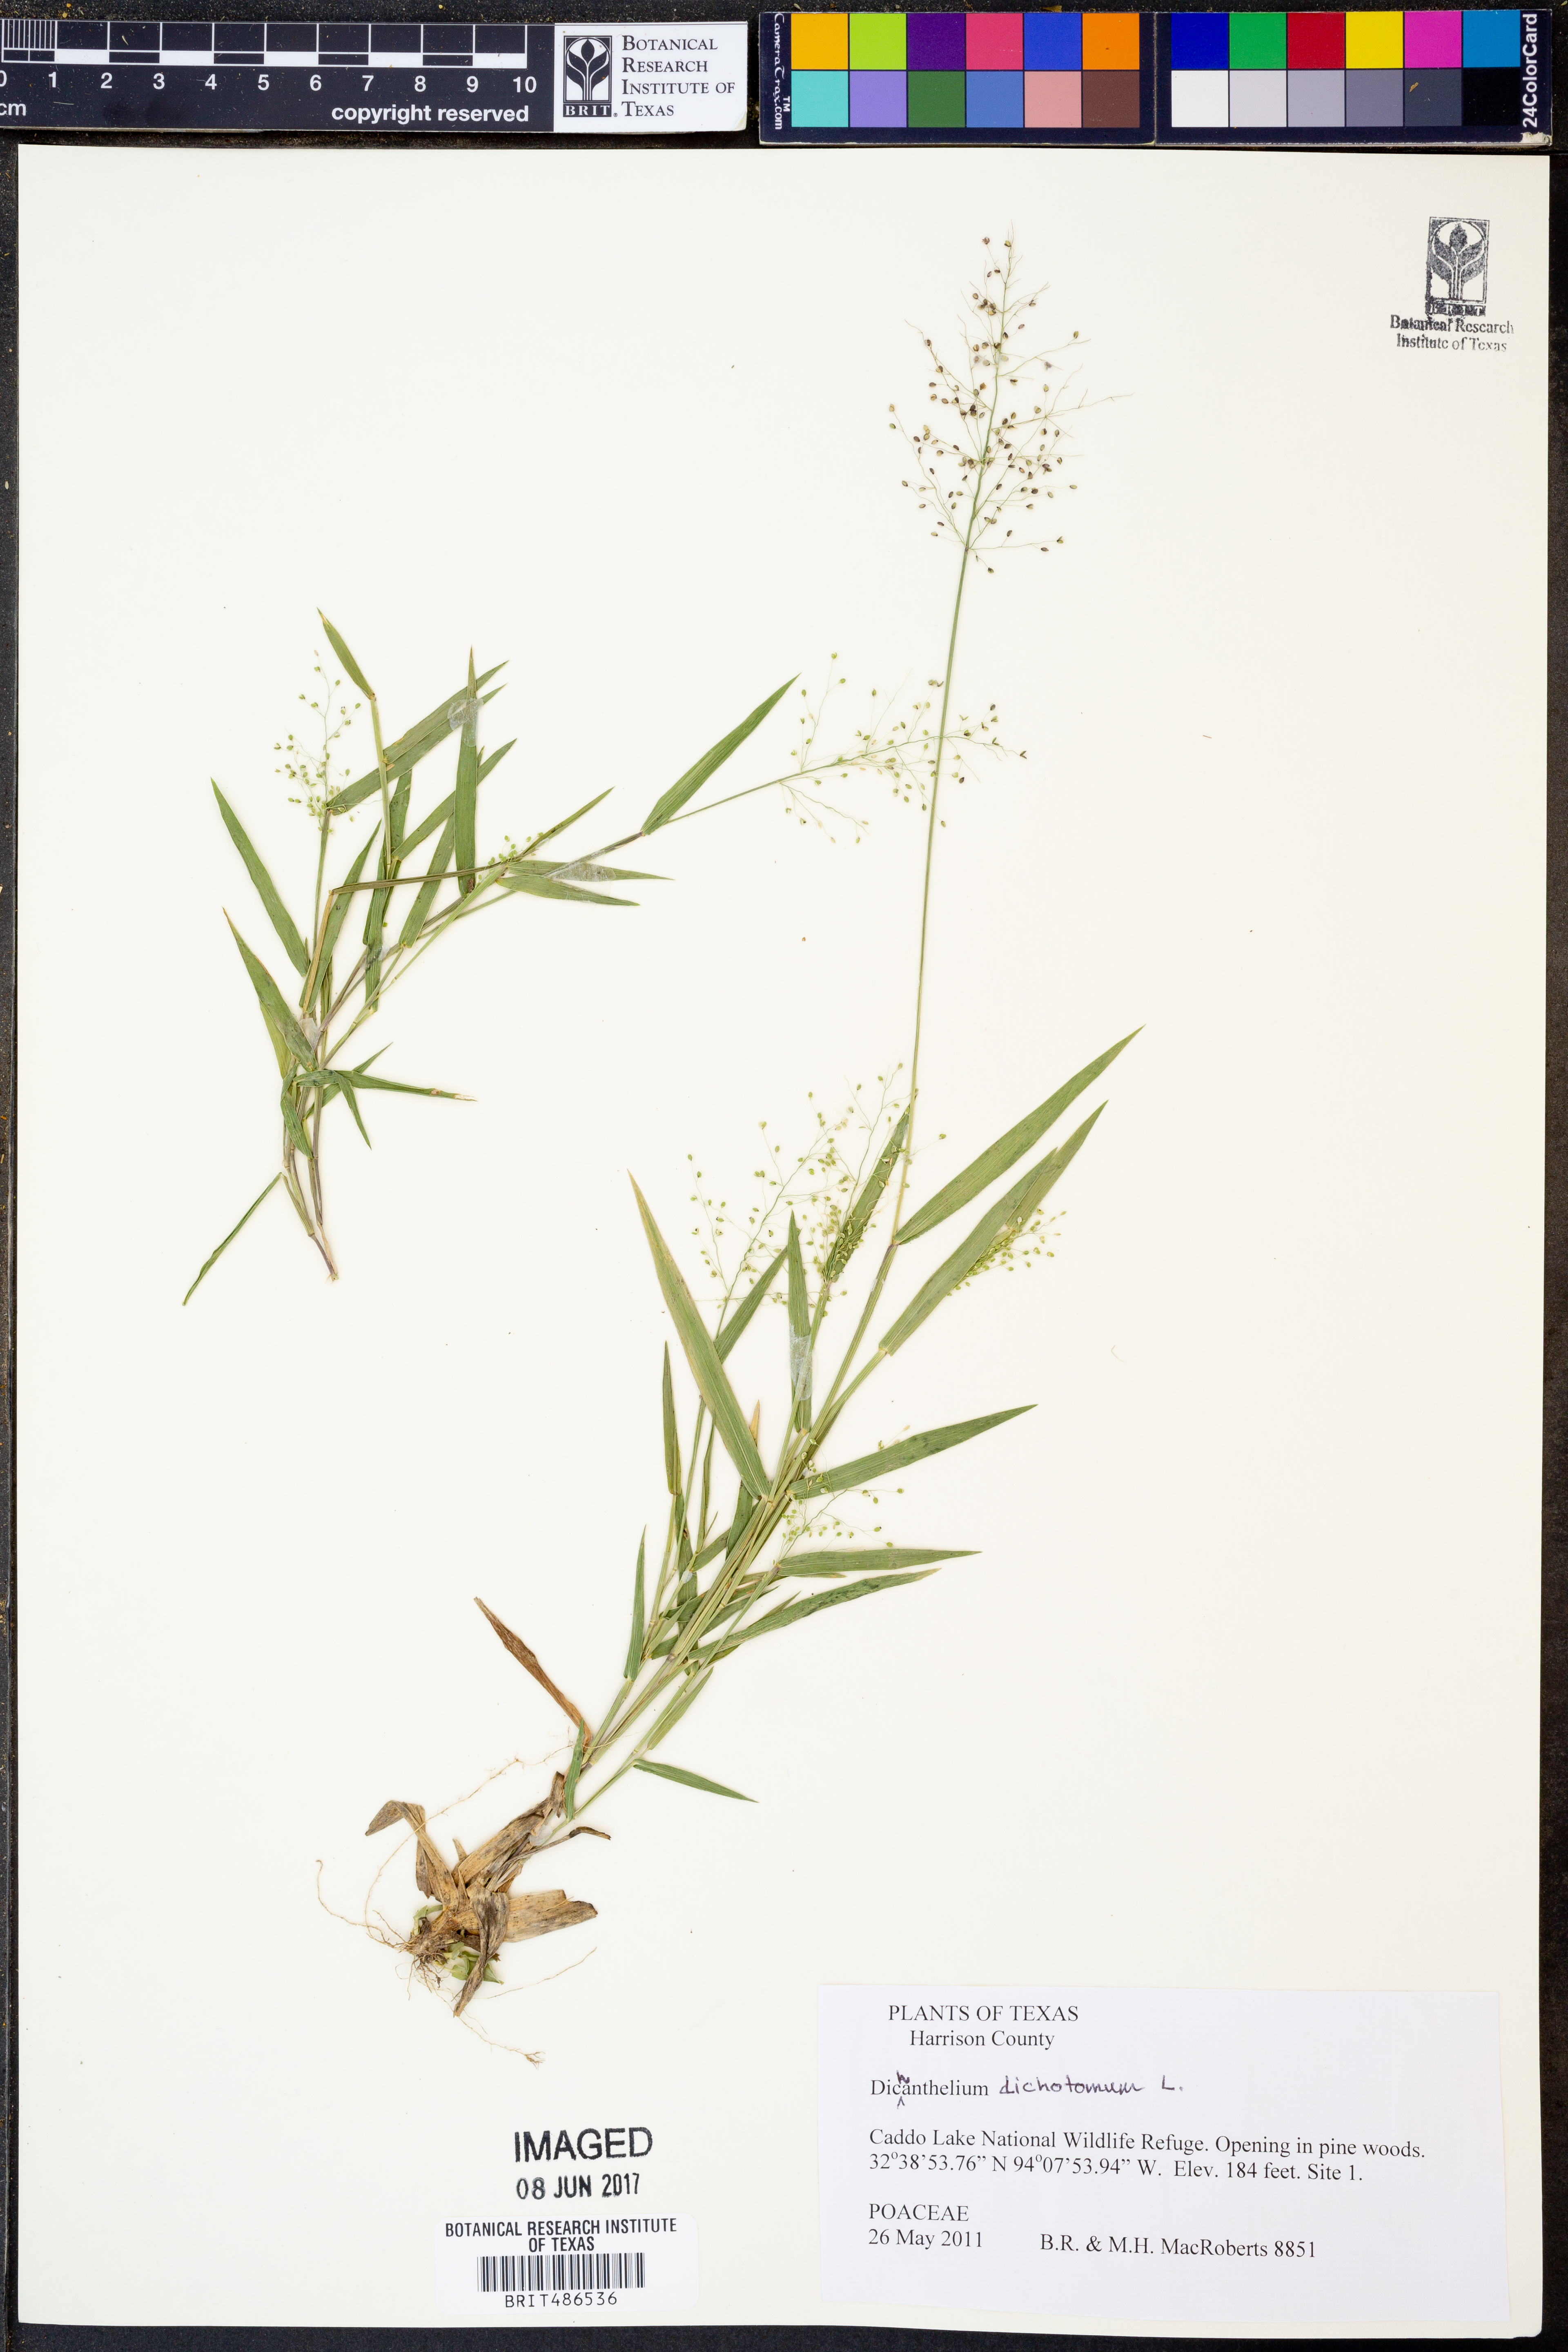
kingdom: Plantae
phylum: Tracheophyta
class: Liliopsida
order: Poales
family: Poaceae
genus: Dichanthelium
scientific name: Dichanthelium dichotomum
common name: Cypress panicgrass
